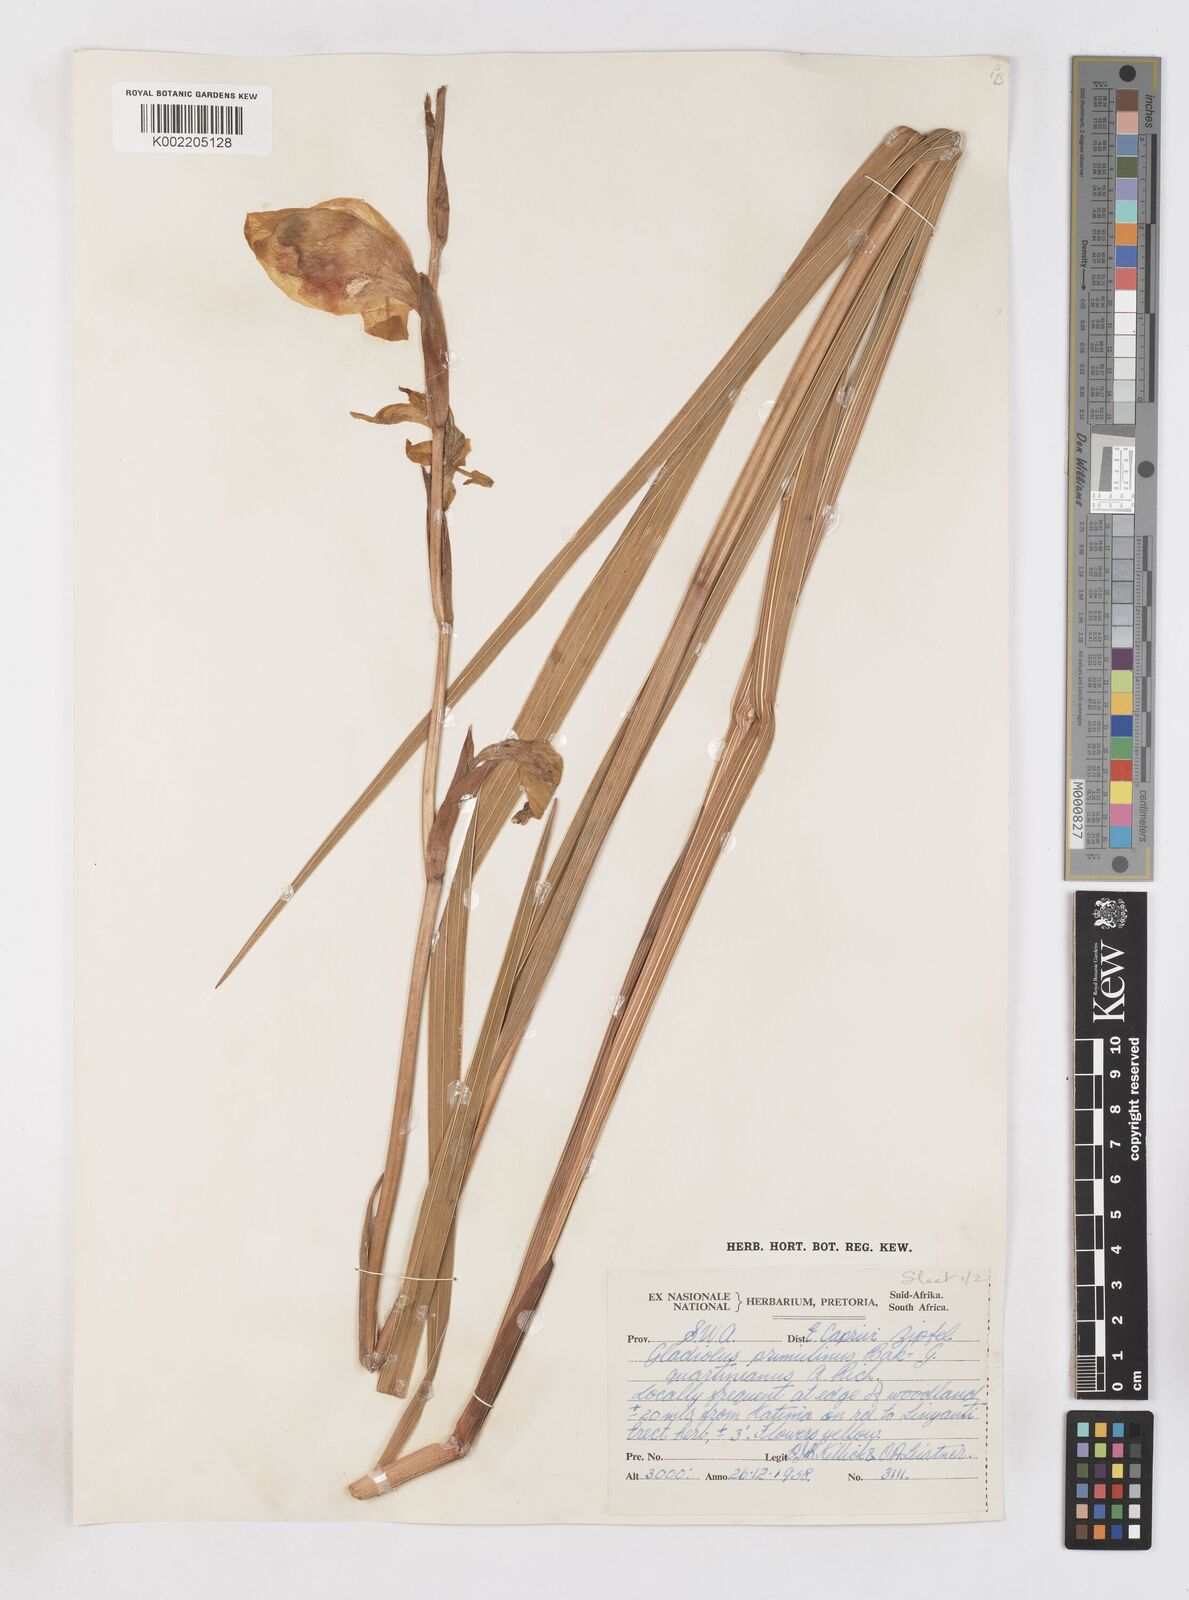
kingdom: Plantae
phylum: Tracheophyta
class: Liliopsida
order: Asparagales
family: Iridaceae
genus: Gladiolus
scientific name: Gladiolus dalenii
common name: Cornflag
